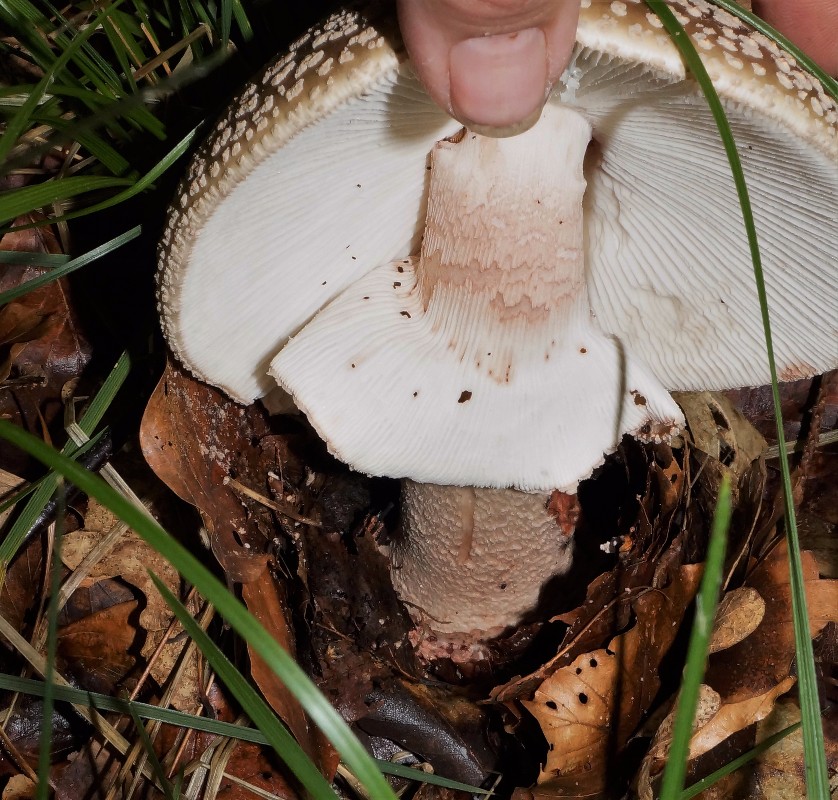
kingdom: Fungi
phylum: Basidiomycota
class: Agaricomycetes
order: Agaricales
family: Amanitaceae
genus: Amanita
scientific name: Amanita rubescens
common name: rødmende fluesvamp
